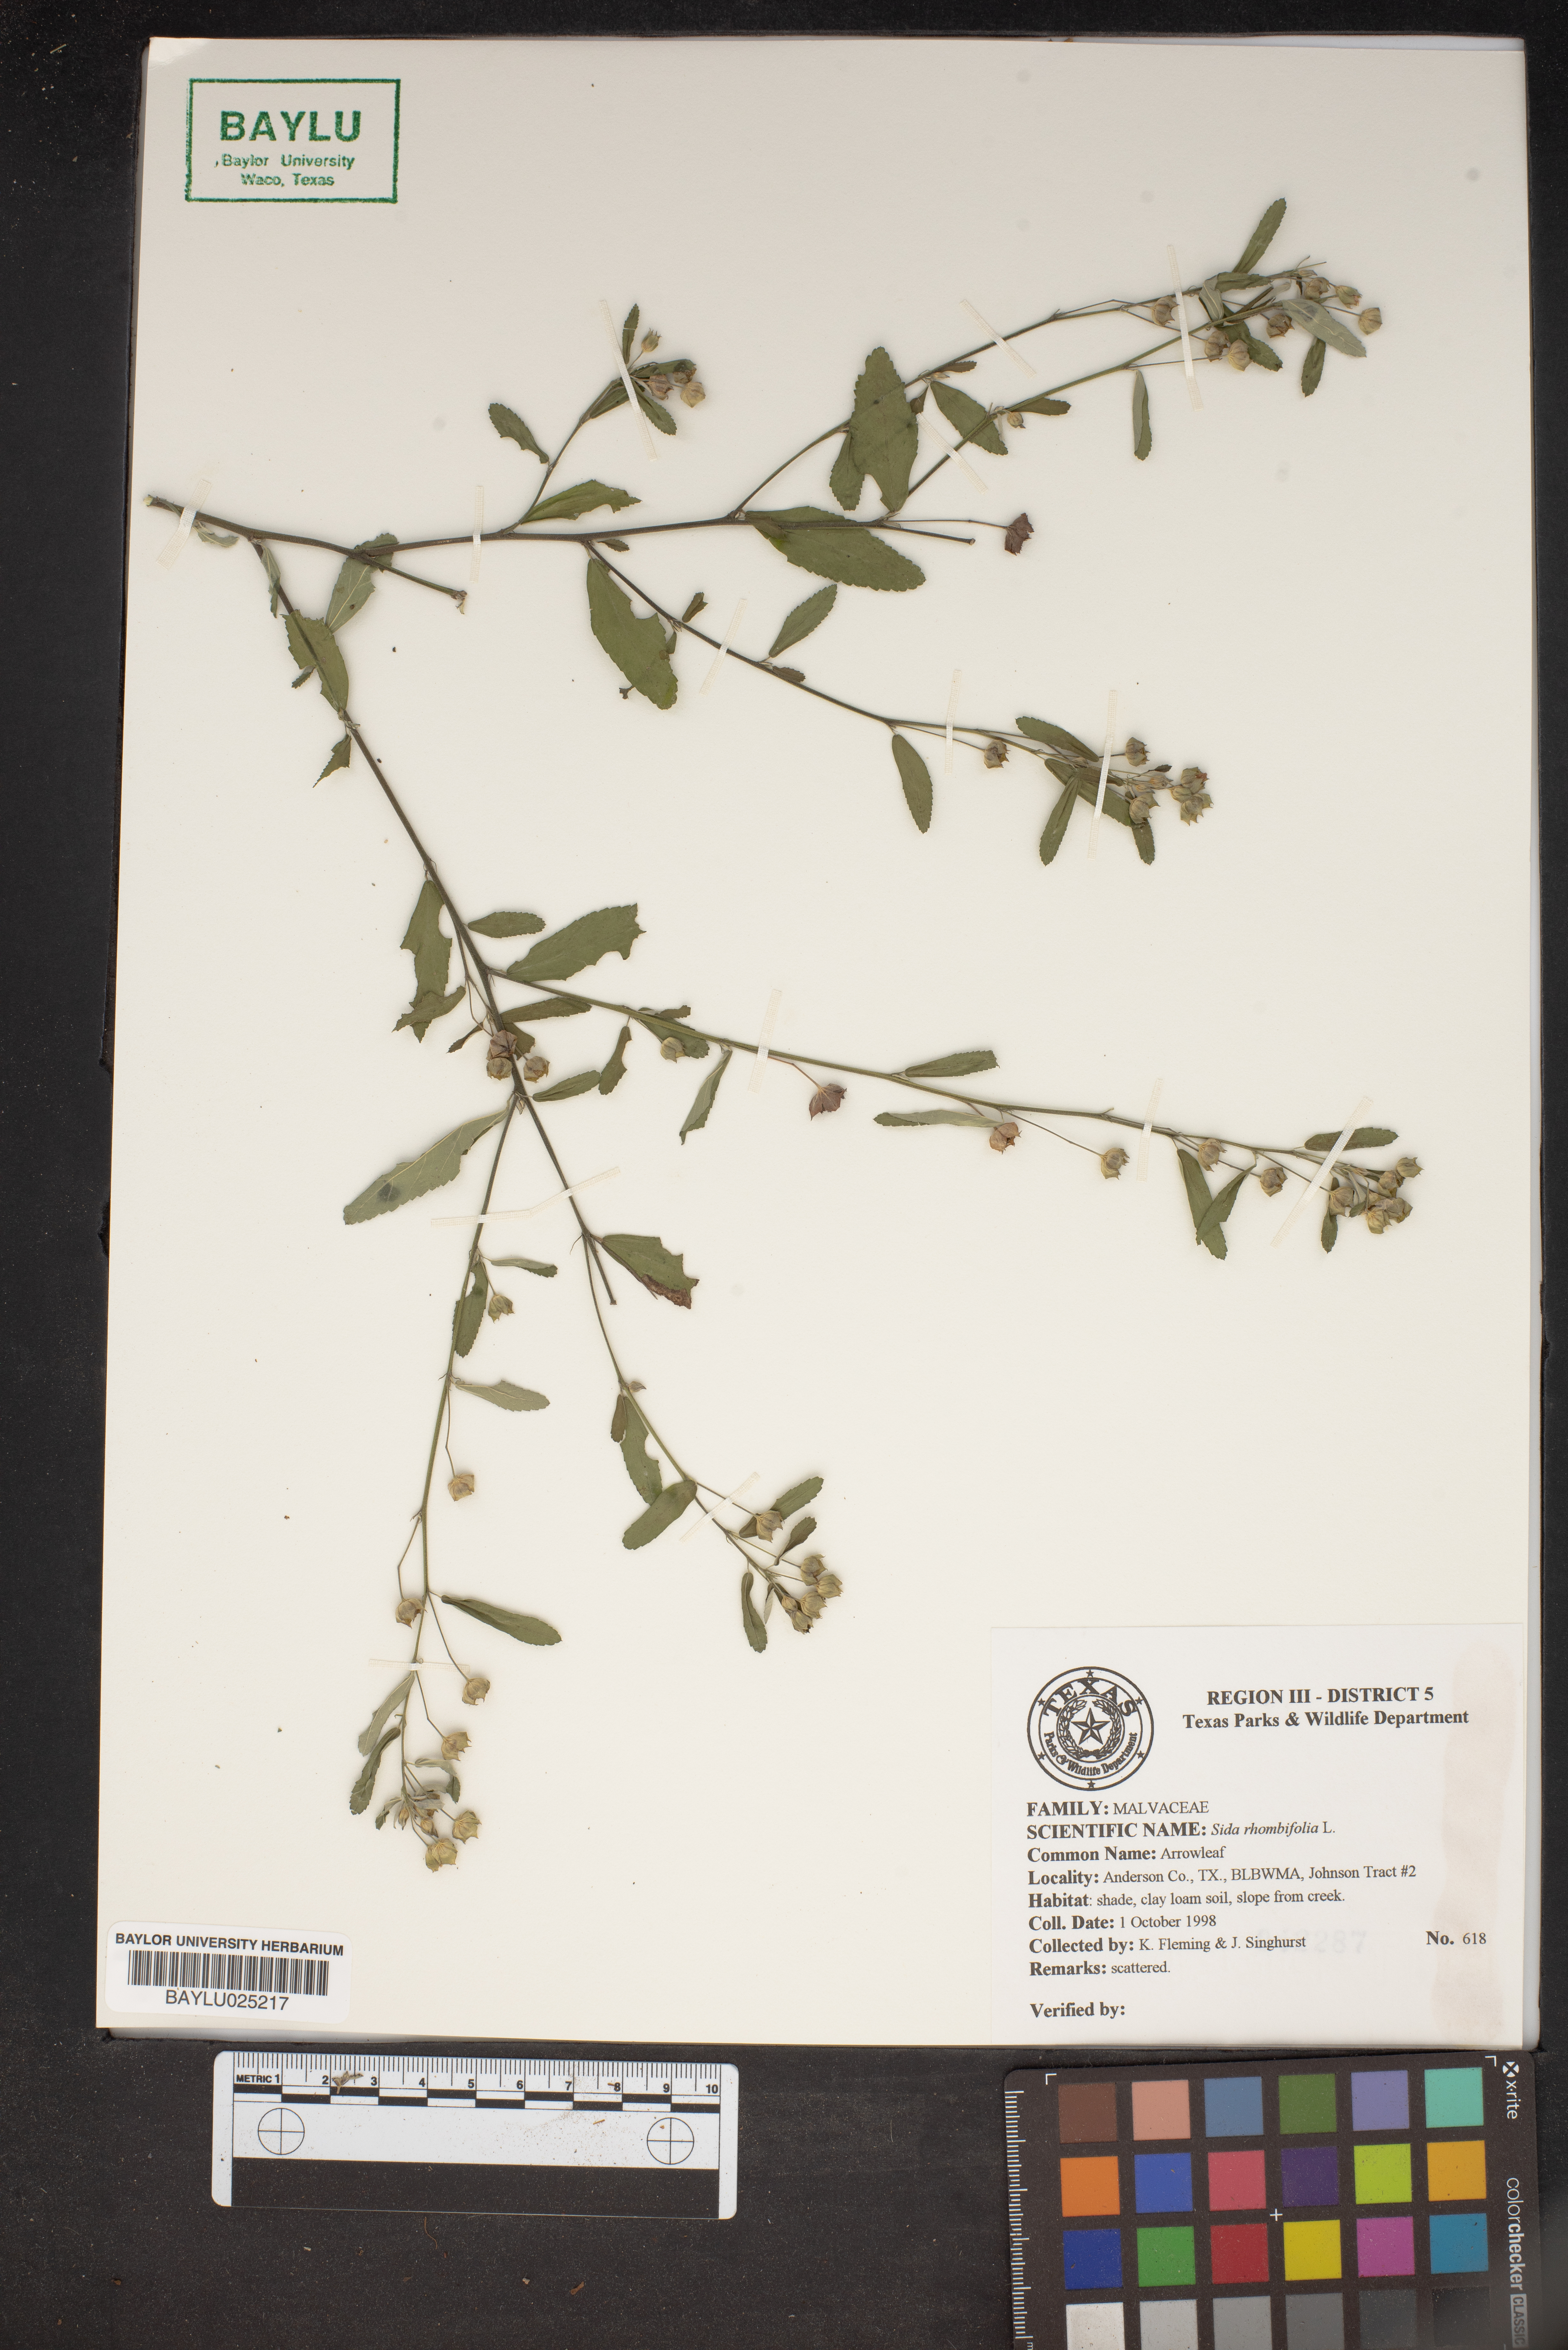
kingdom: Plantae
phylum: Tracheophyta
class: Magnoliopsida
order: Malvales
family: Malvaceae
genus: Sida
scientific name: Sida rhombifolia
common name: Queensland-hemp
